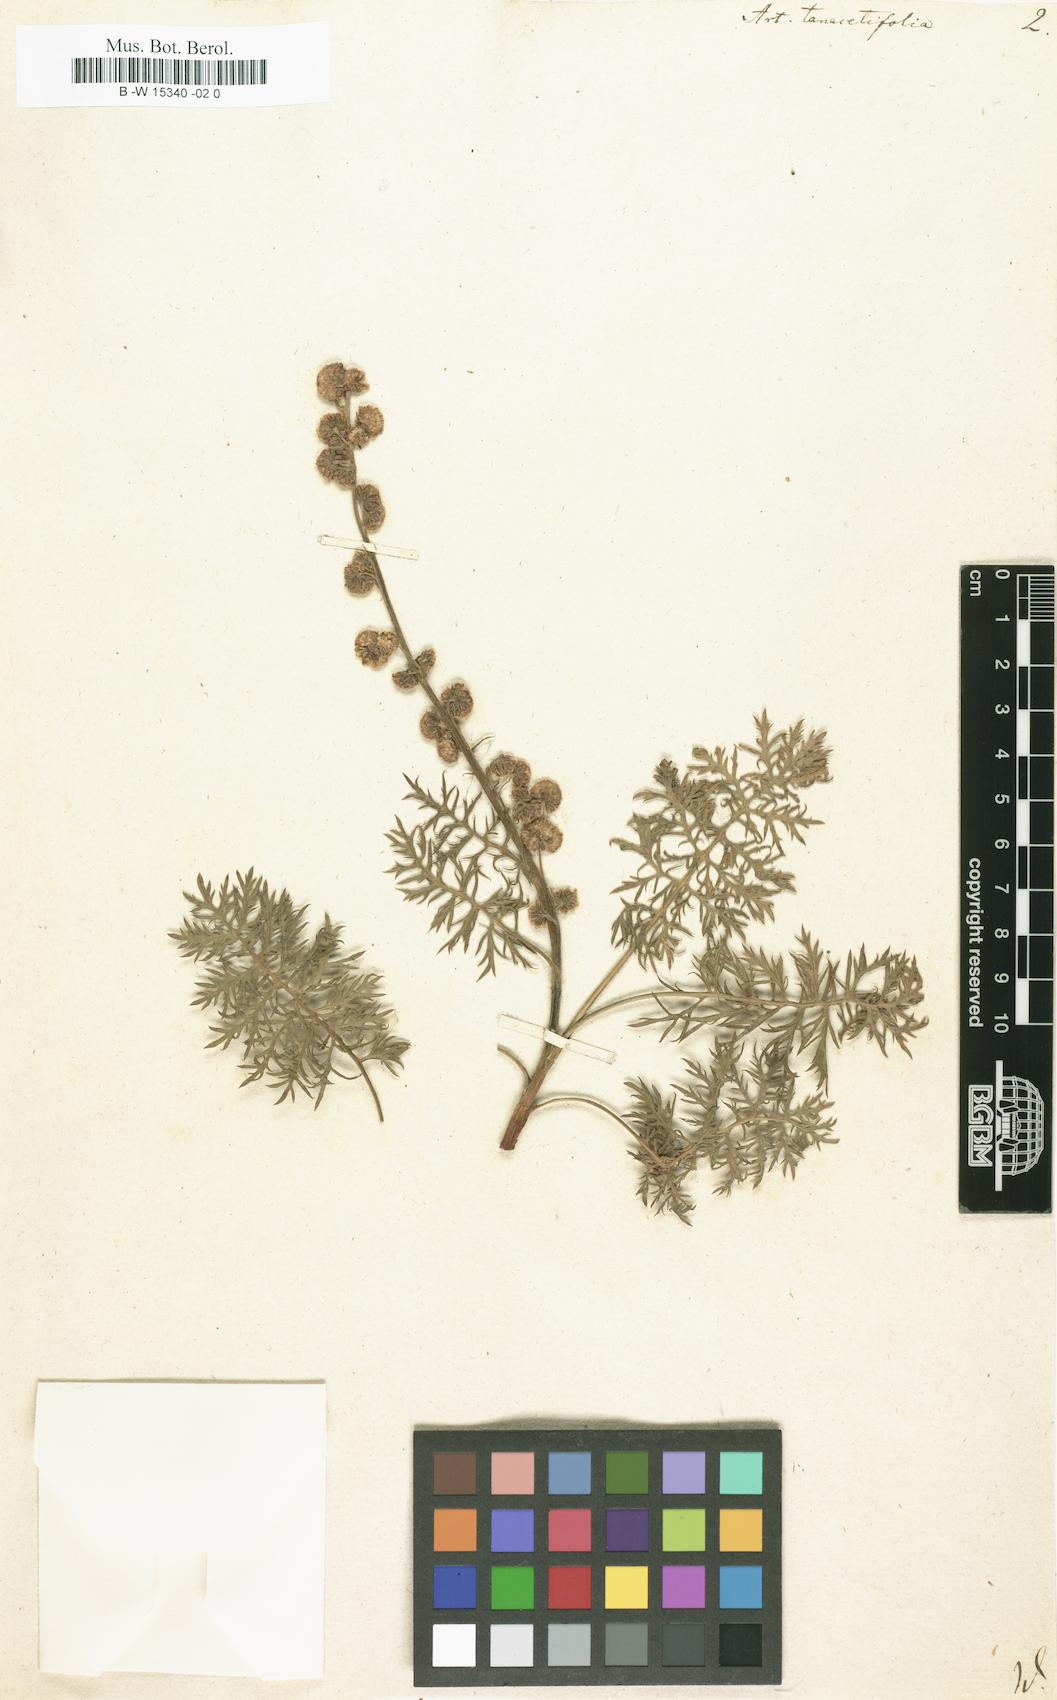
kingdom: Plantae
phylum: Tracheophyta
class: Magnoliopsida
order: Asterales
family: Asteraceae
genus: Artemisia
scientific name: Artemisia tanacetifolia
